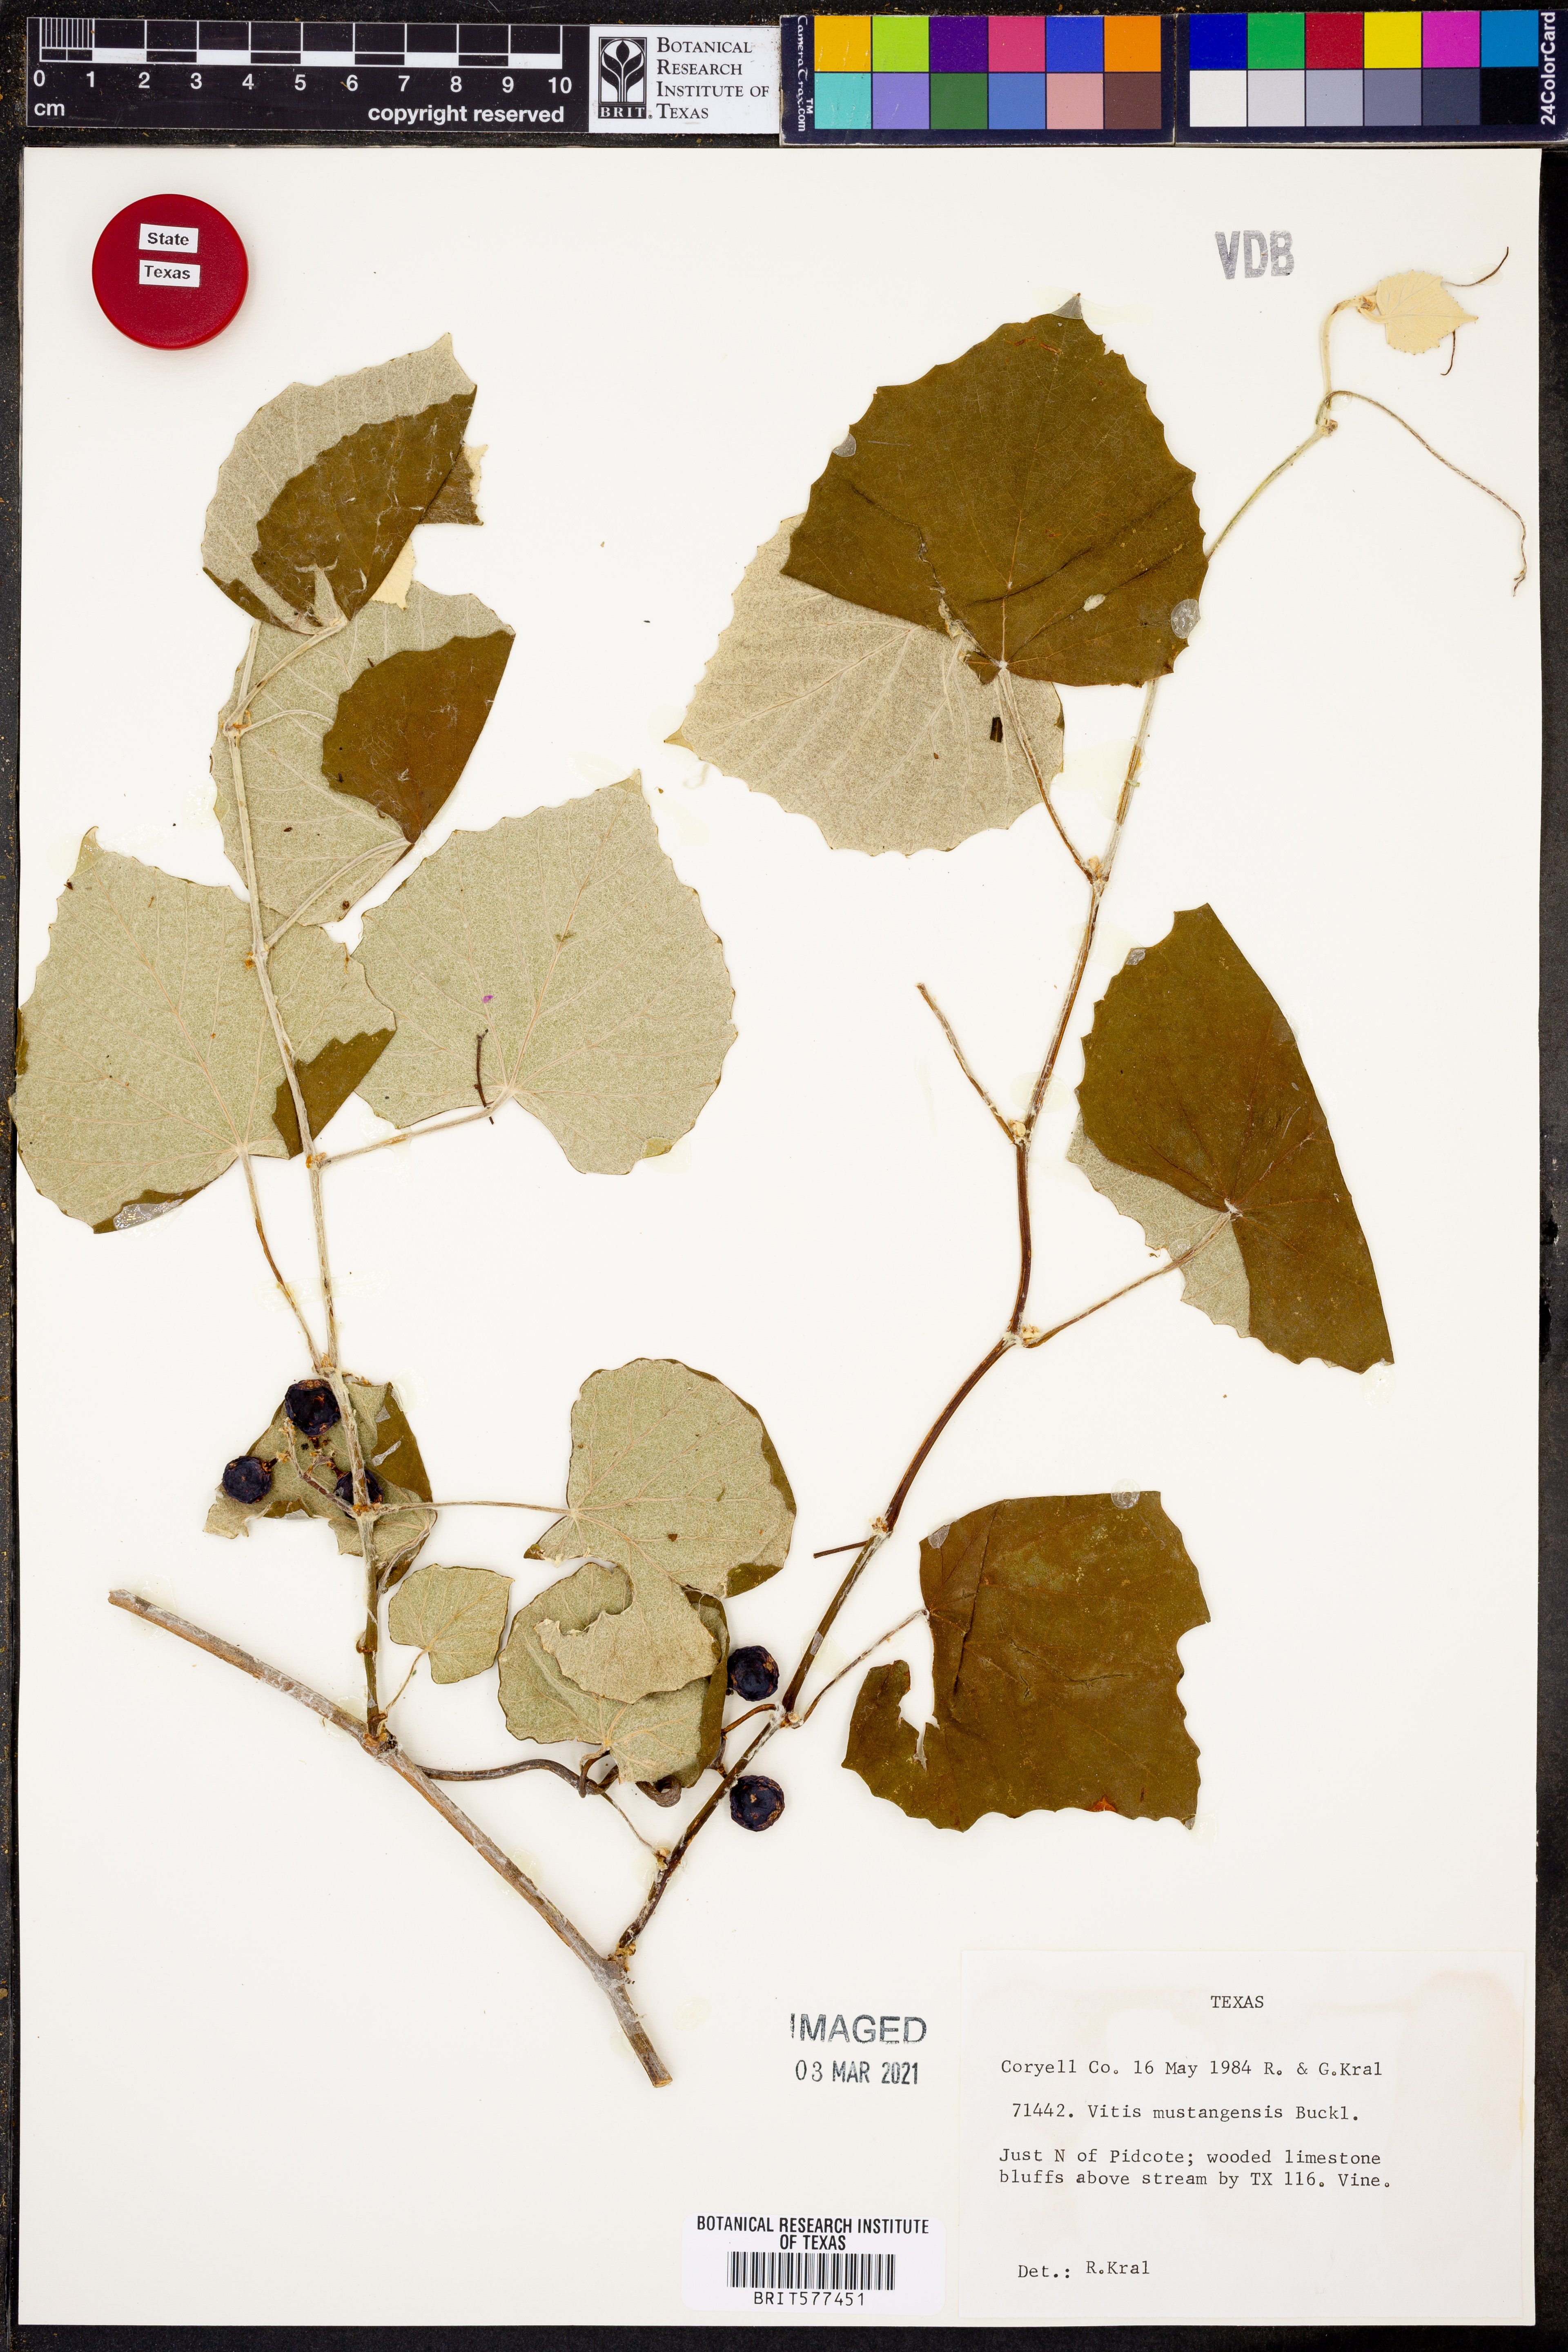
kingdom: Plantae
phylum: Tracheophyta
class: Magnoliopsida
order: Vitales
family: Vitaceae
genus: Vitis
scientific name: Vitis mustangensis
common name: Mustang grape
